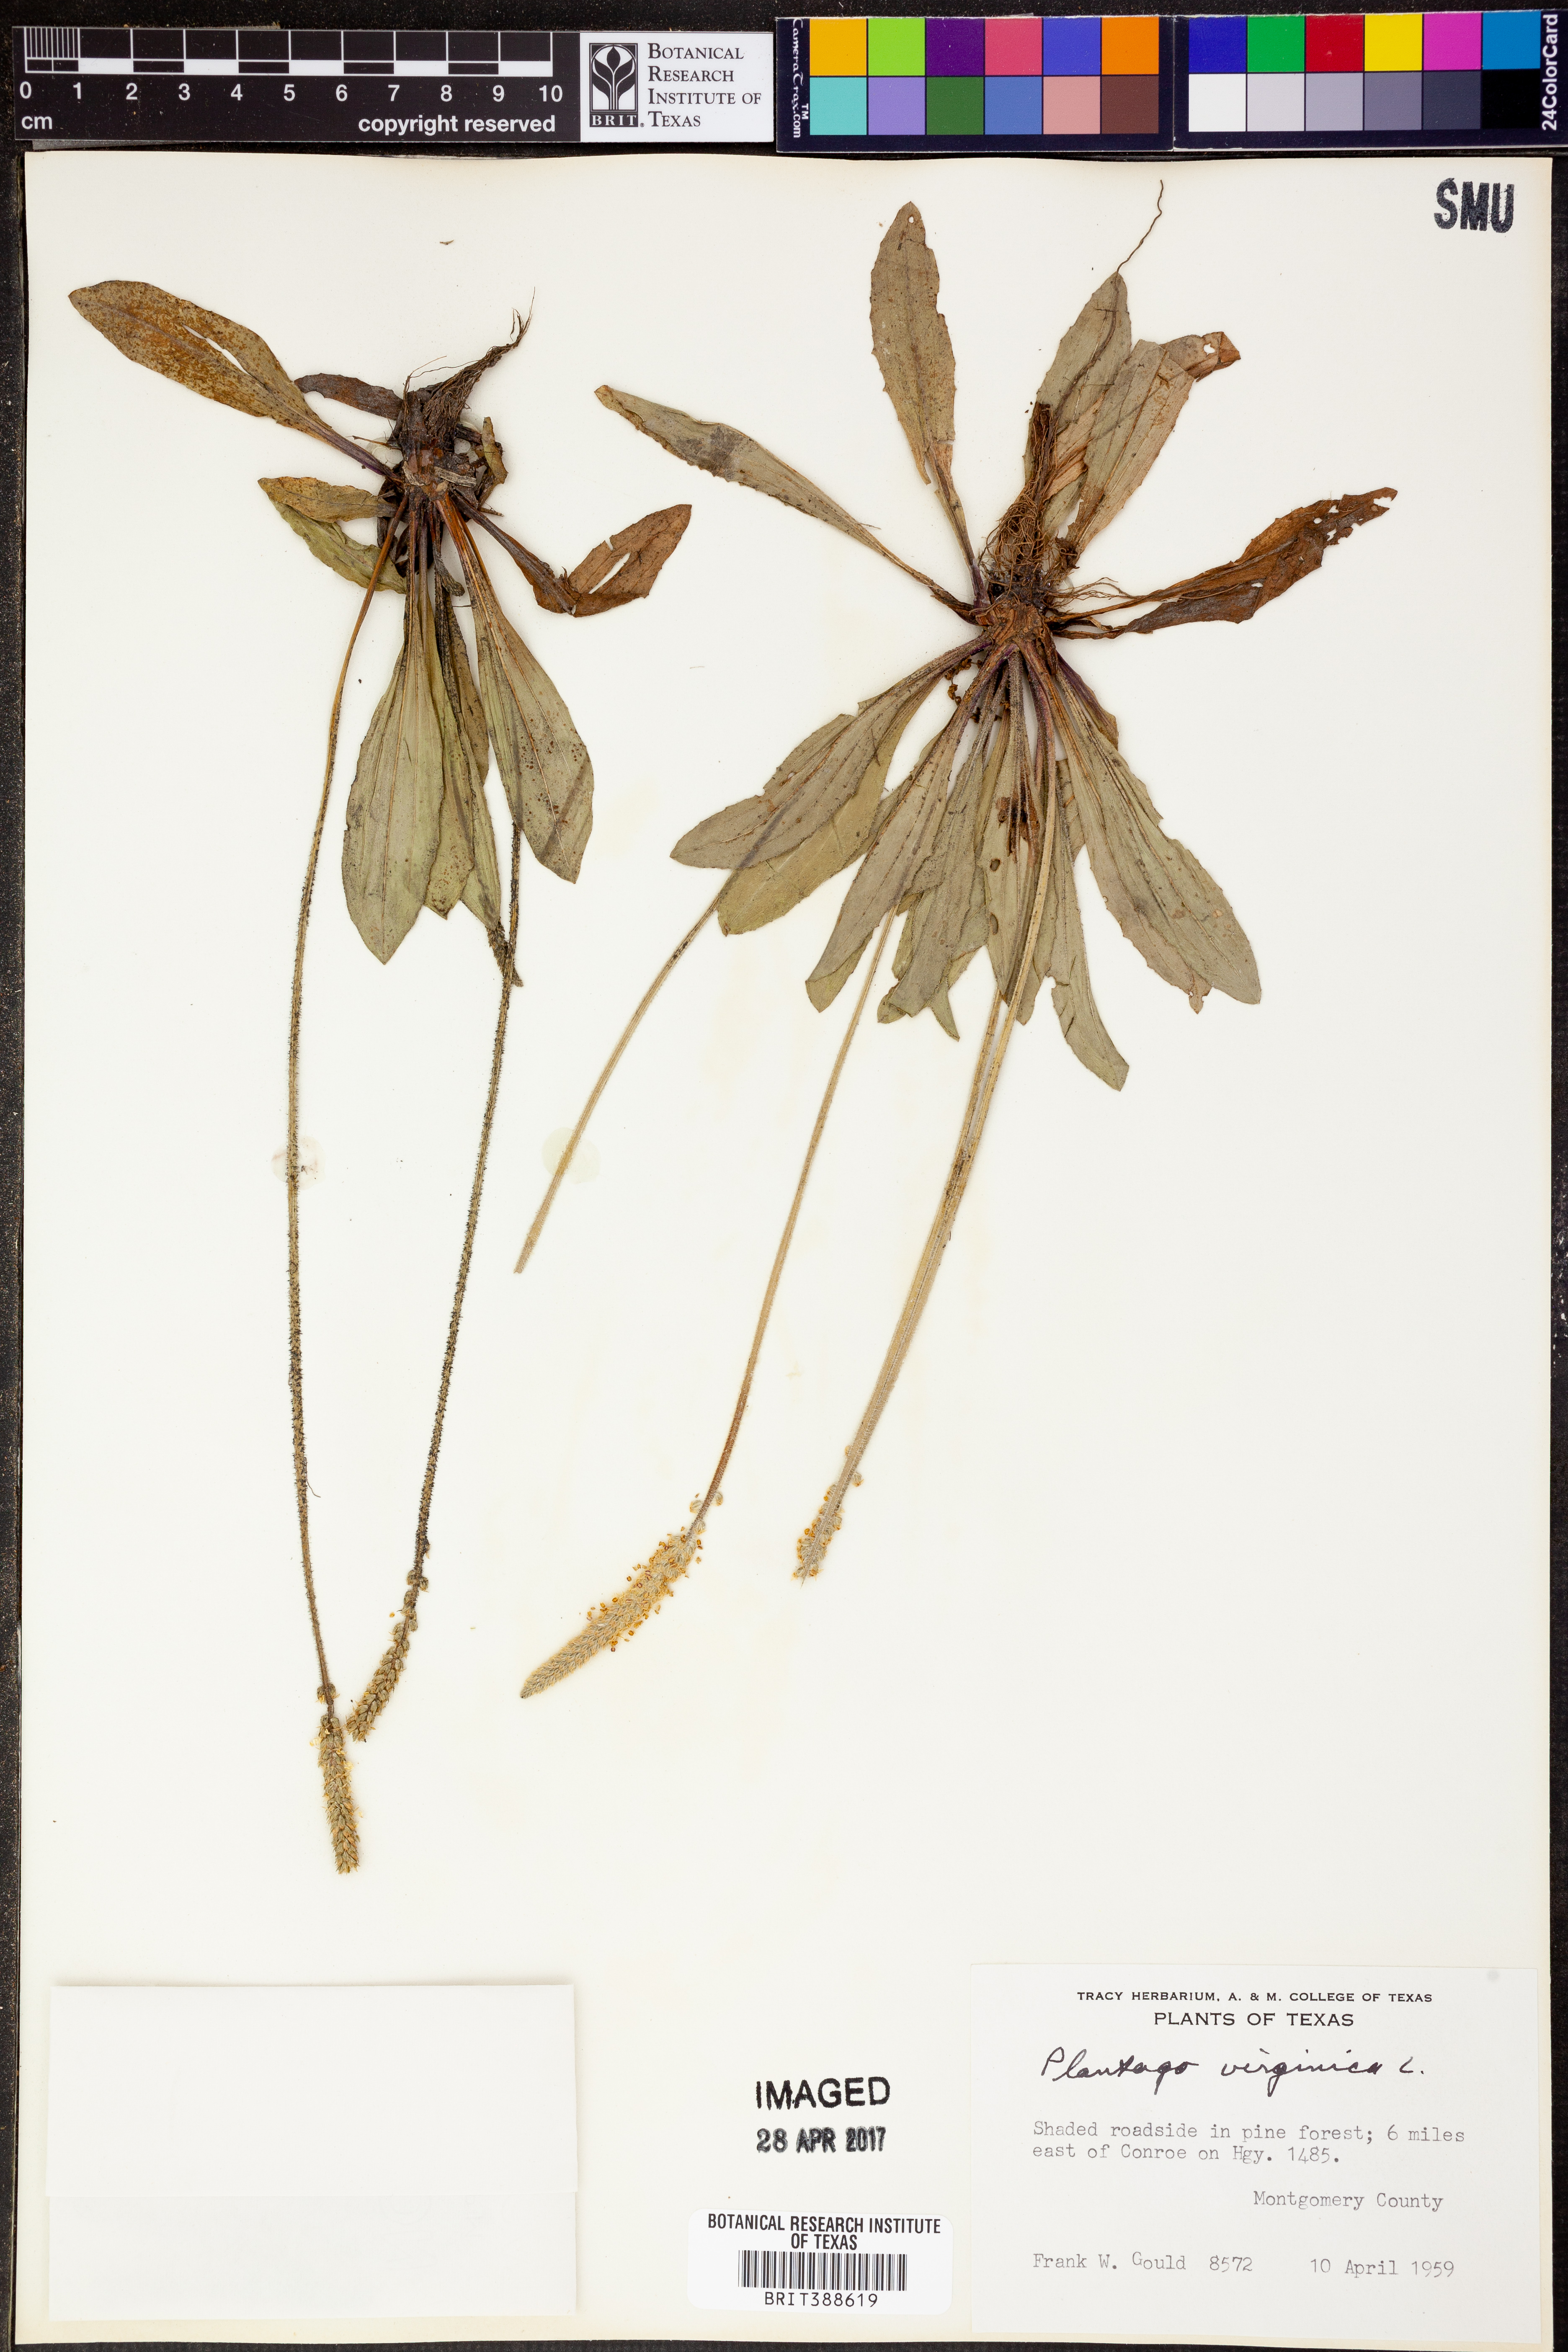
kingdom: Plantae
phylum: Tracheophyta
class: Magnoliopsida
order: Lamiales
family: Plantaginaceae
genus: Plantago
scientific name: Plantago virginica
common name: Hoary plantain
